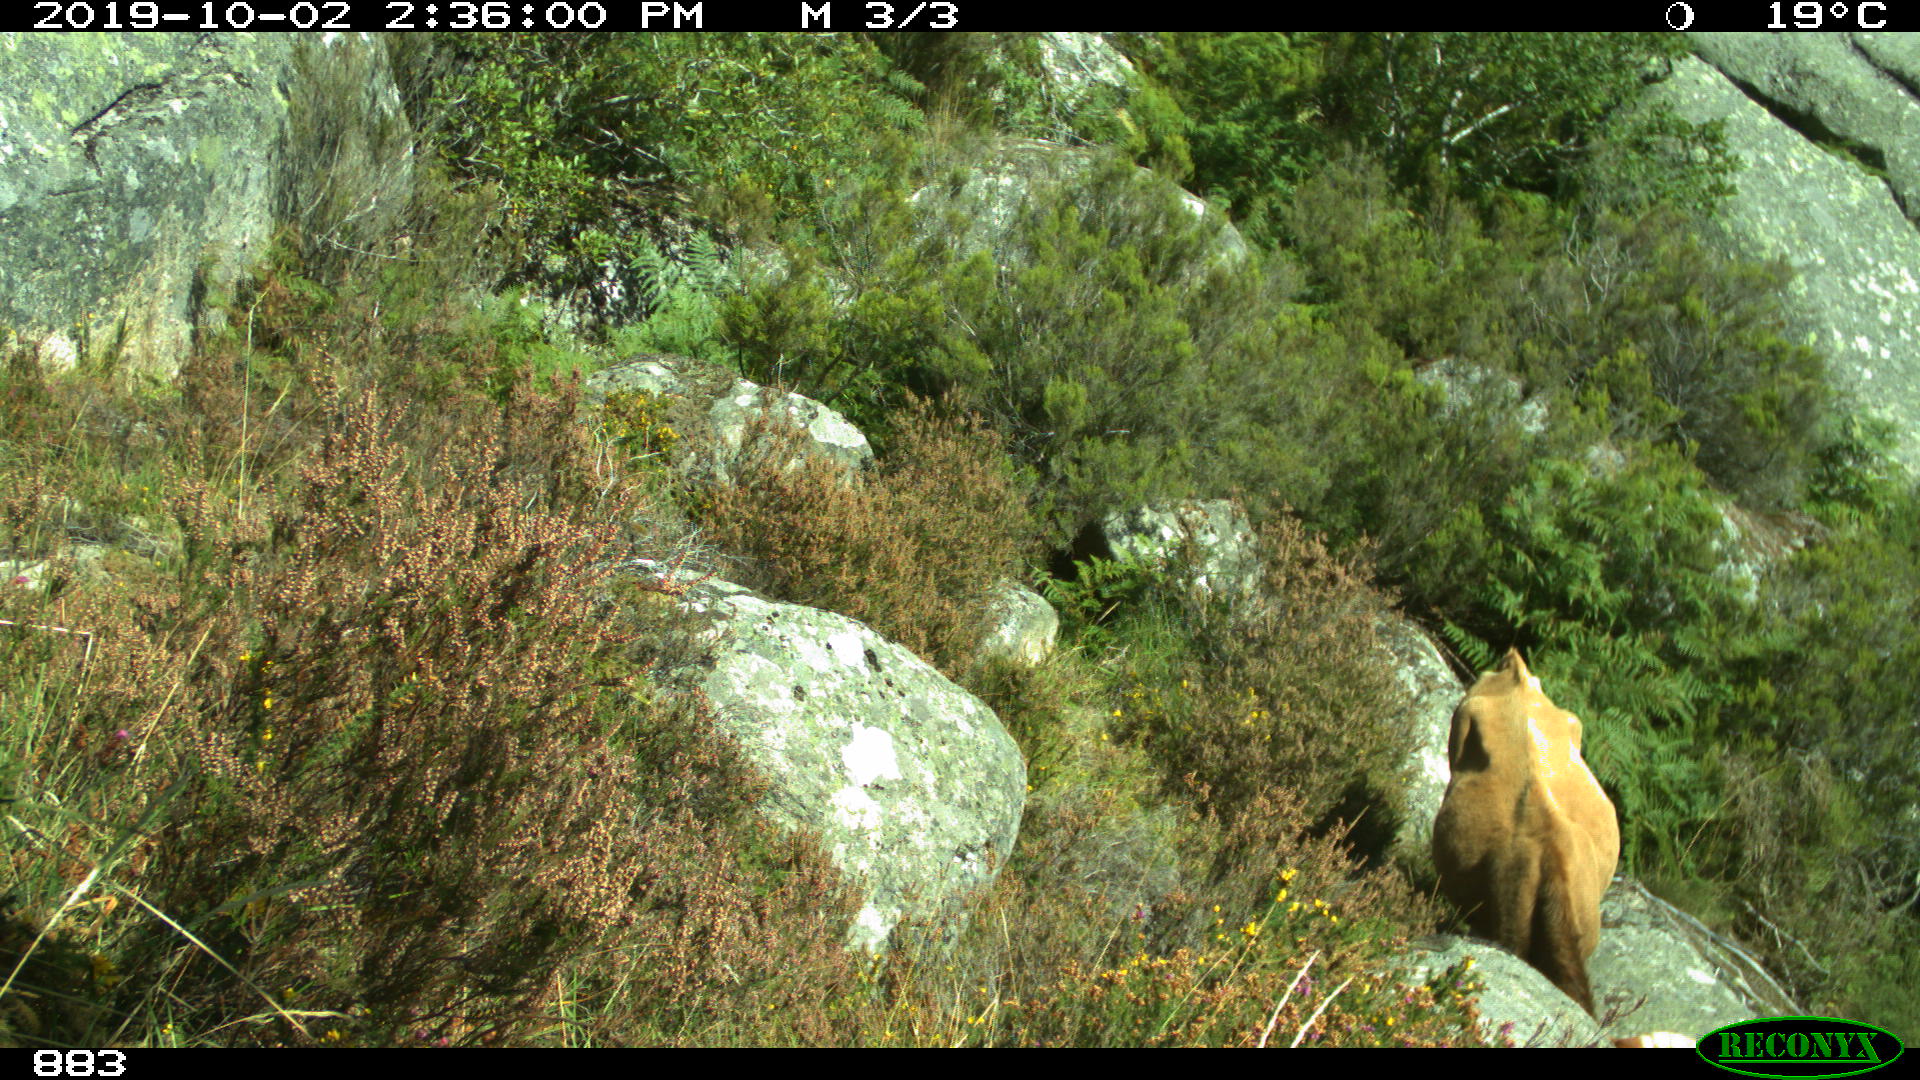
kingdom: Animalia
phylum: Chordata
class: Mammalia
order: Artiodactyla
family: Bovidae
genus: Bos
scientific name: Bos taurus
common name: Domesticated cattle
